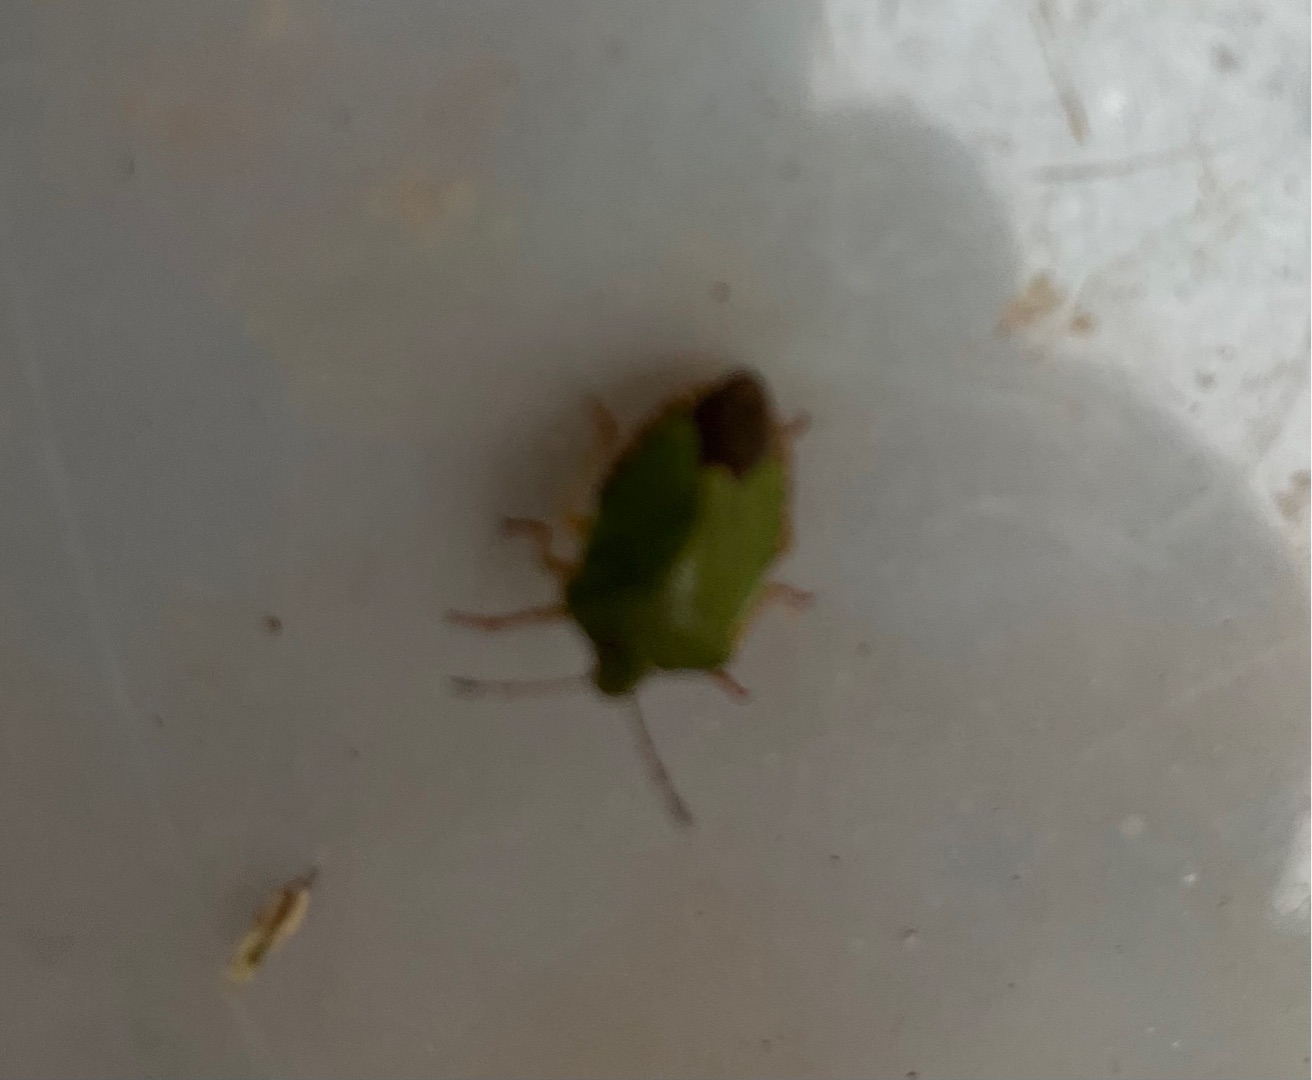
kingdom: Animalia
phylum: Arthropoda
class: Insecta
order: Hemiptera
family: Pentatomidae
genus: Palomena
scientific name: Palomena prasina
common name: Grøn bredtæge
